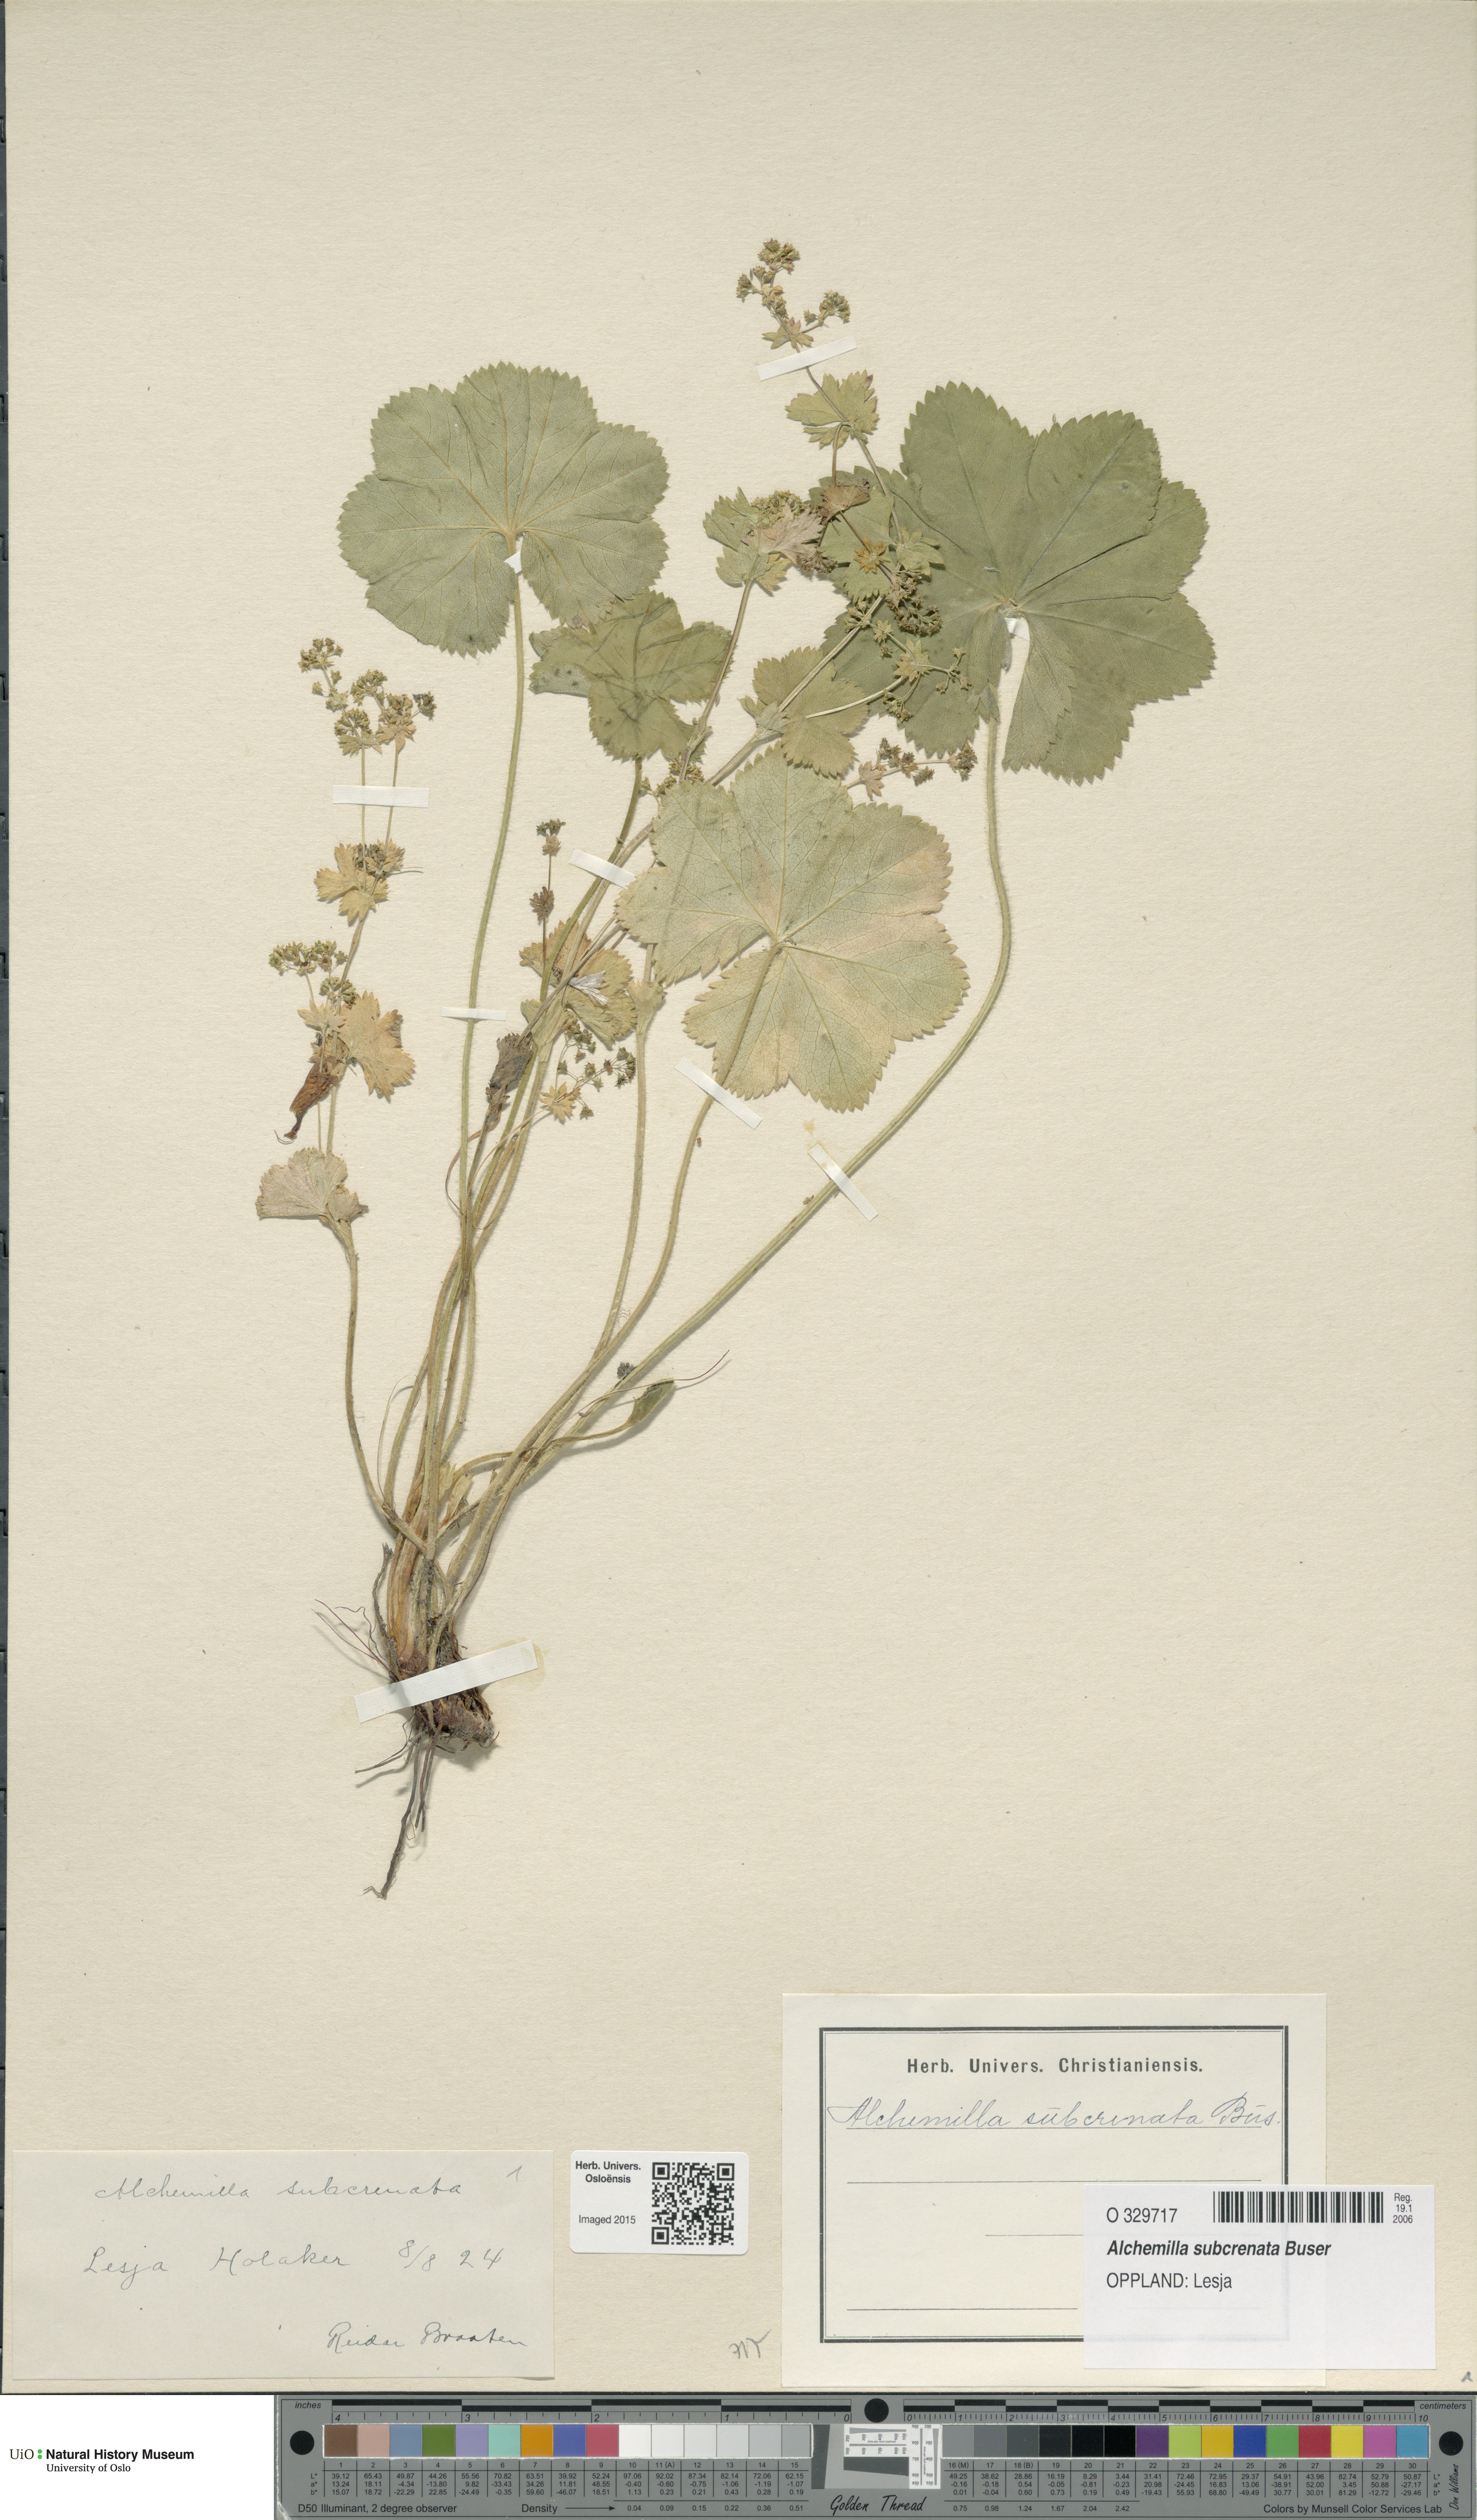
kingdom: Plantae
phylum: Tracheophyta
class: Magnoliopsida
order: Rosales
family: Rosaceae
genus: Alchemilla
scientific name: Alchemilla subcrenata
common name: Broadtooth lady's mantle
